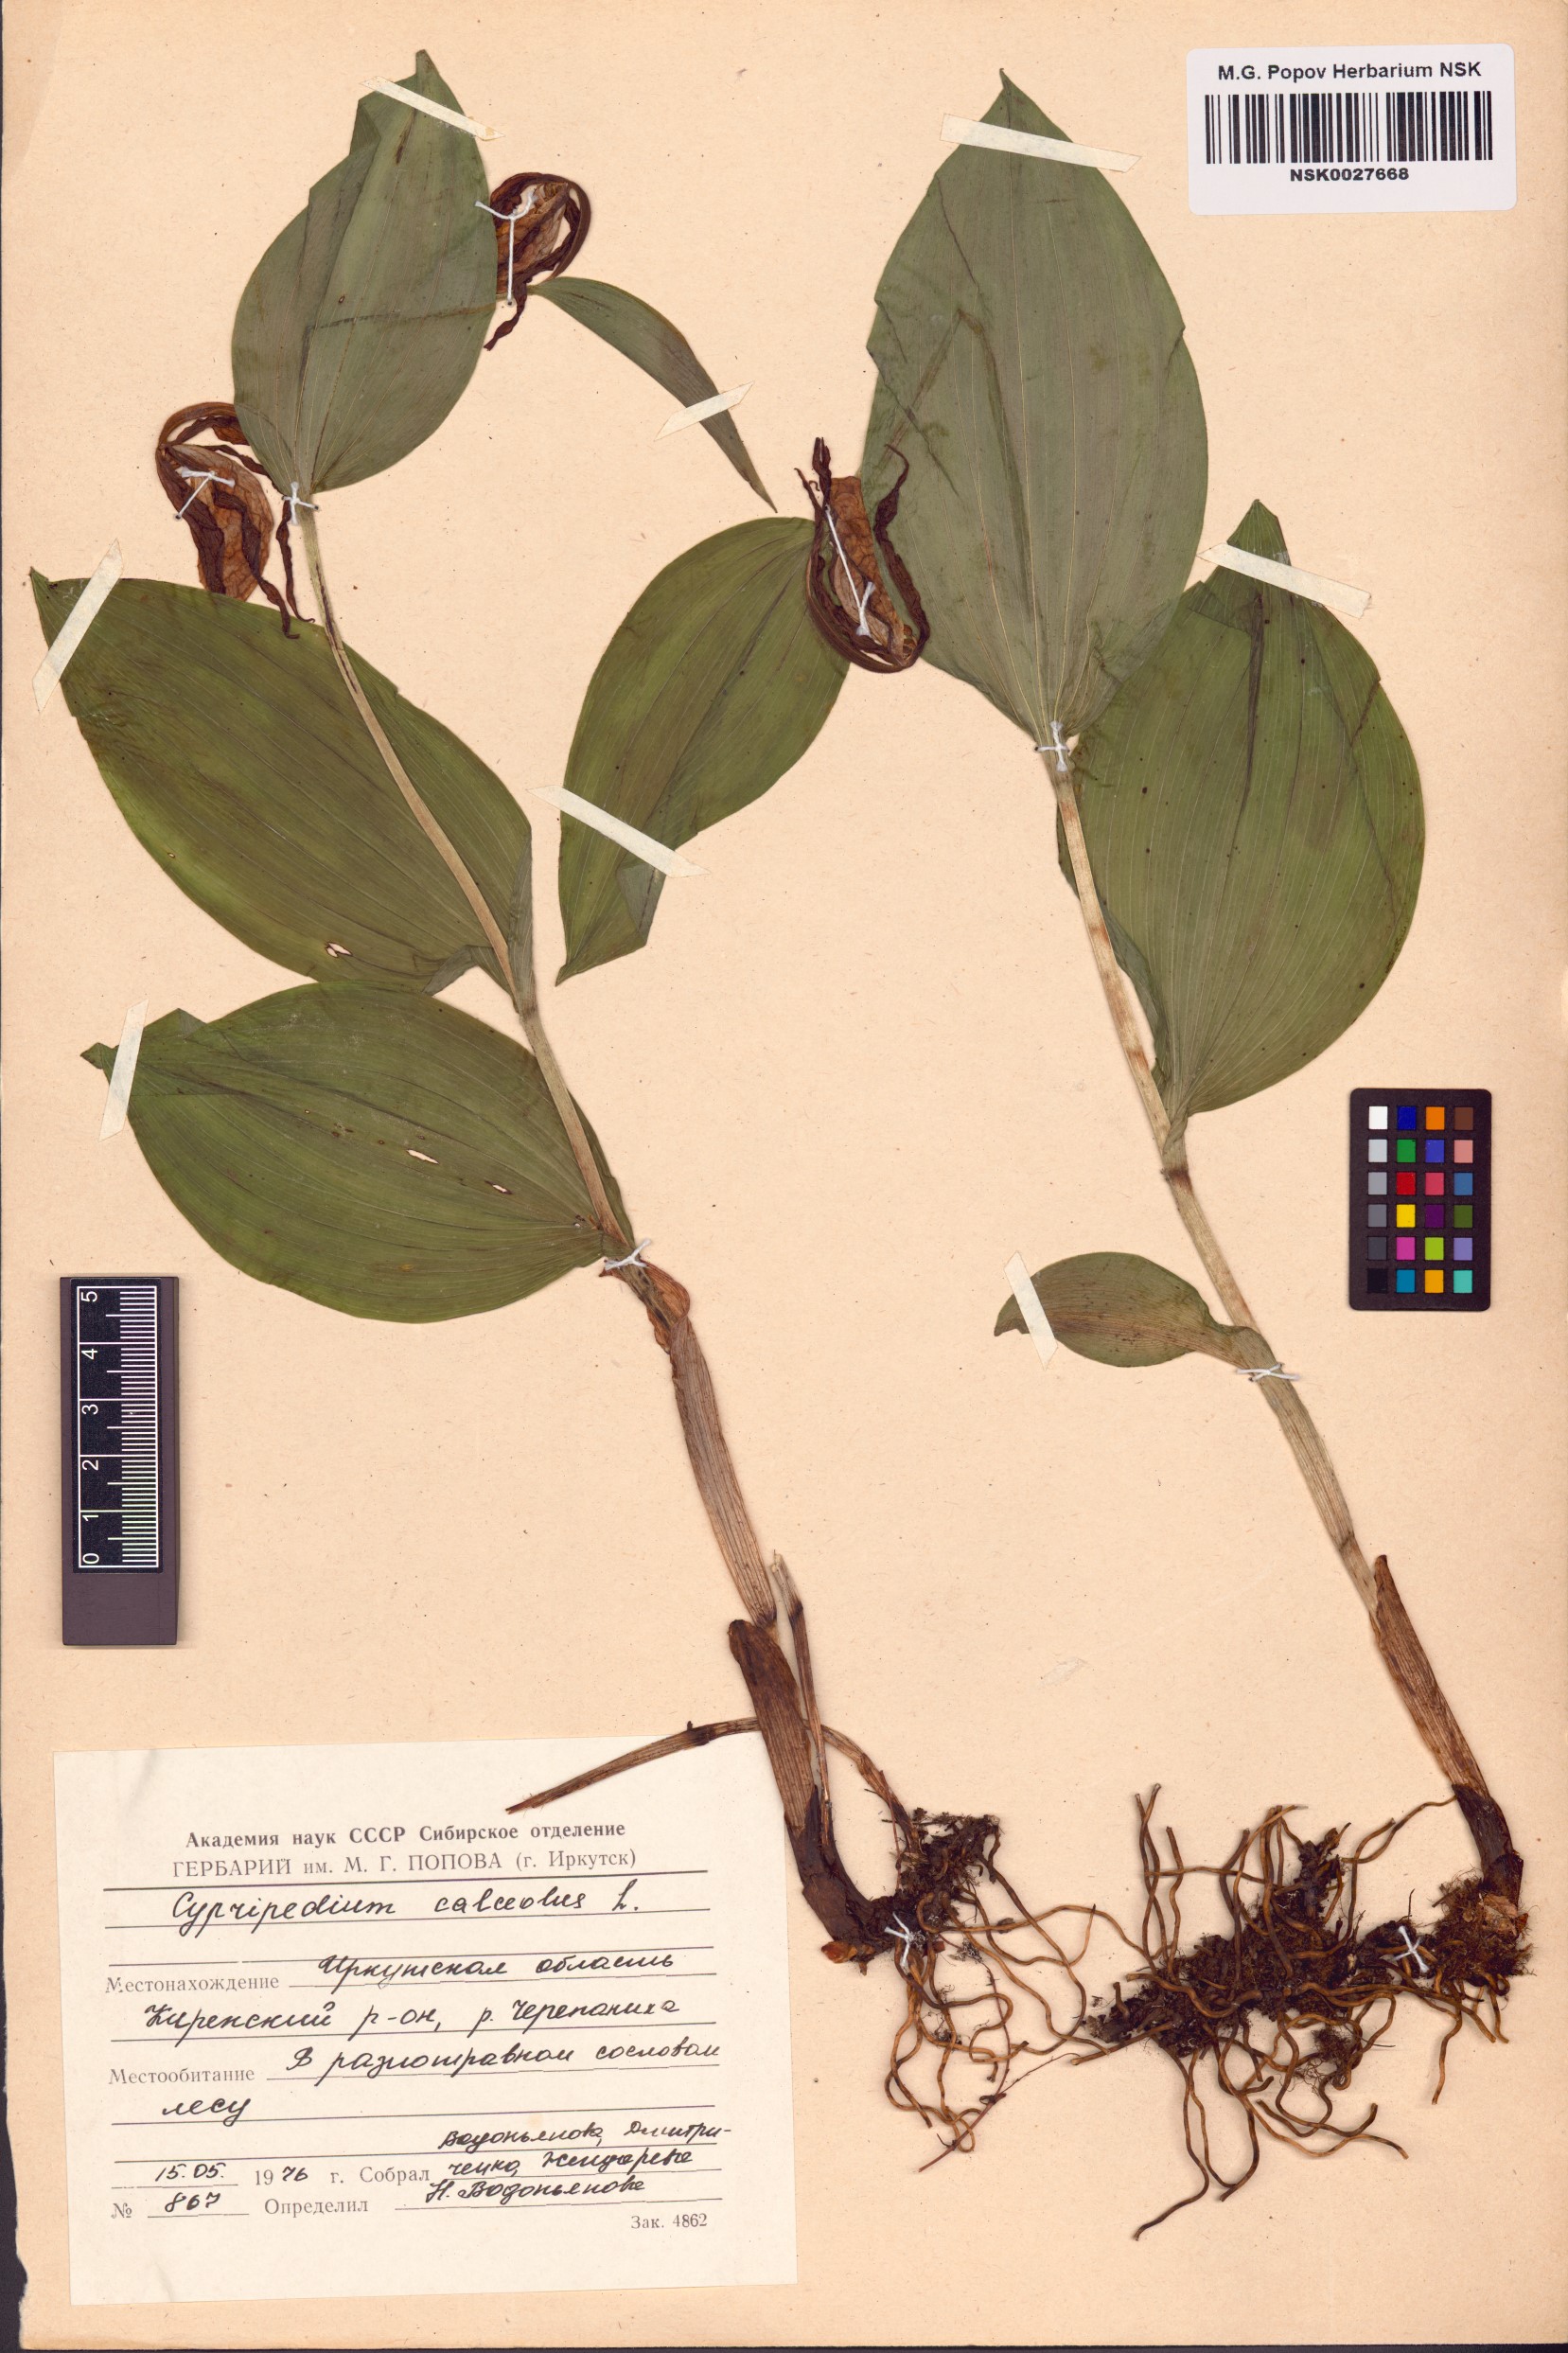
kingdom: Plantae
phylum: Tracheophyta
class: Liliopsida
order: Asparagales
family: Orchidaceae
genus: Cypripedium
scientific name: Cypripedium calceolus
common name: Lady's-slipper
